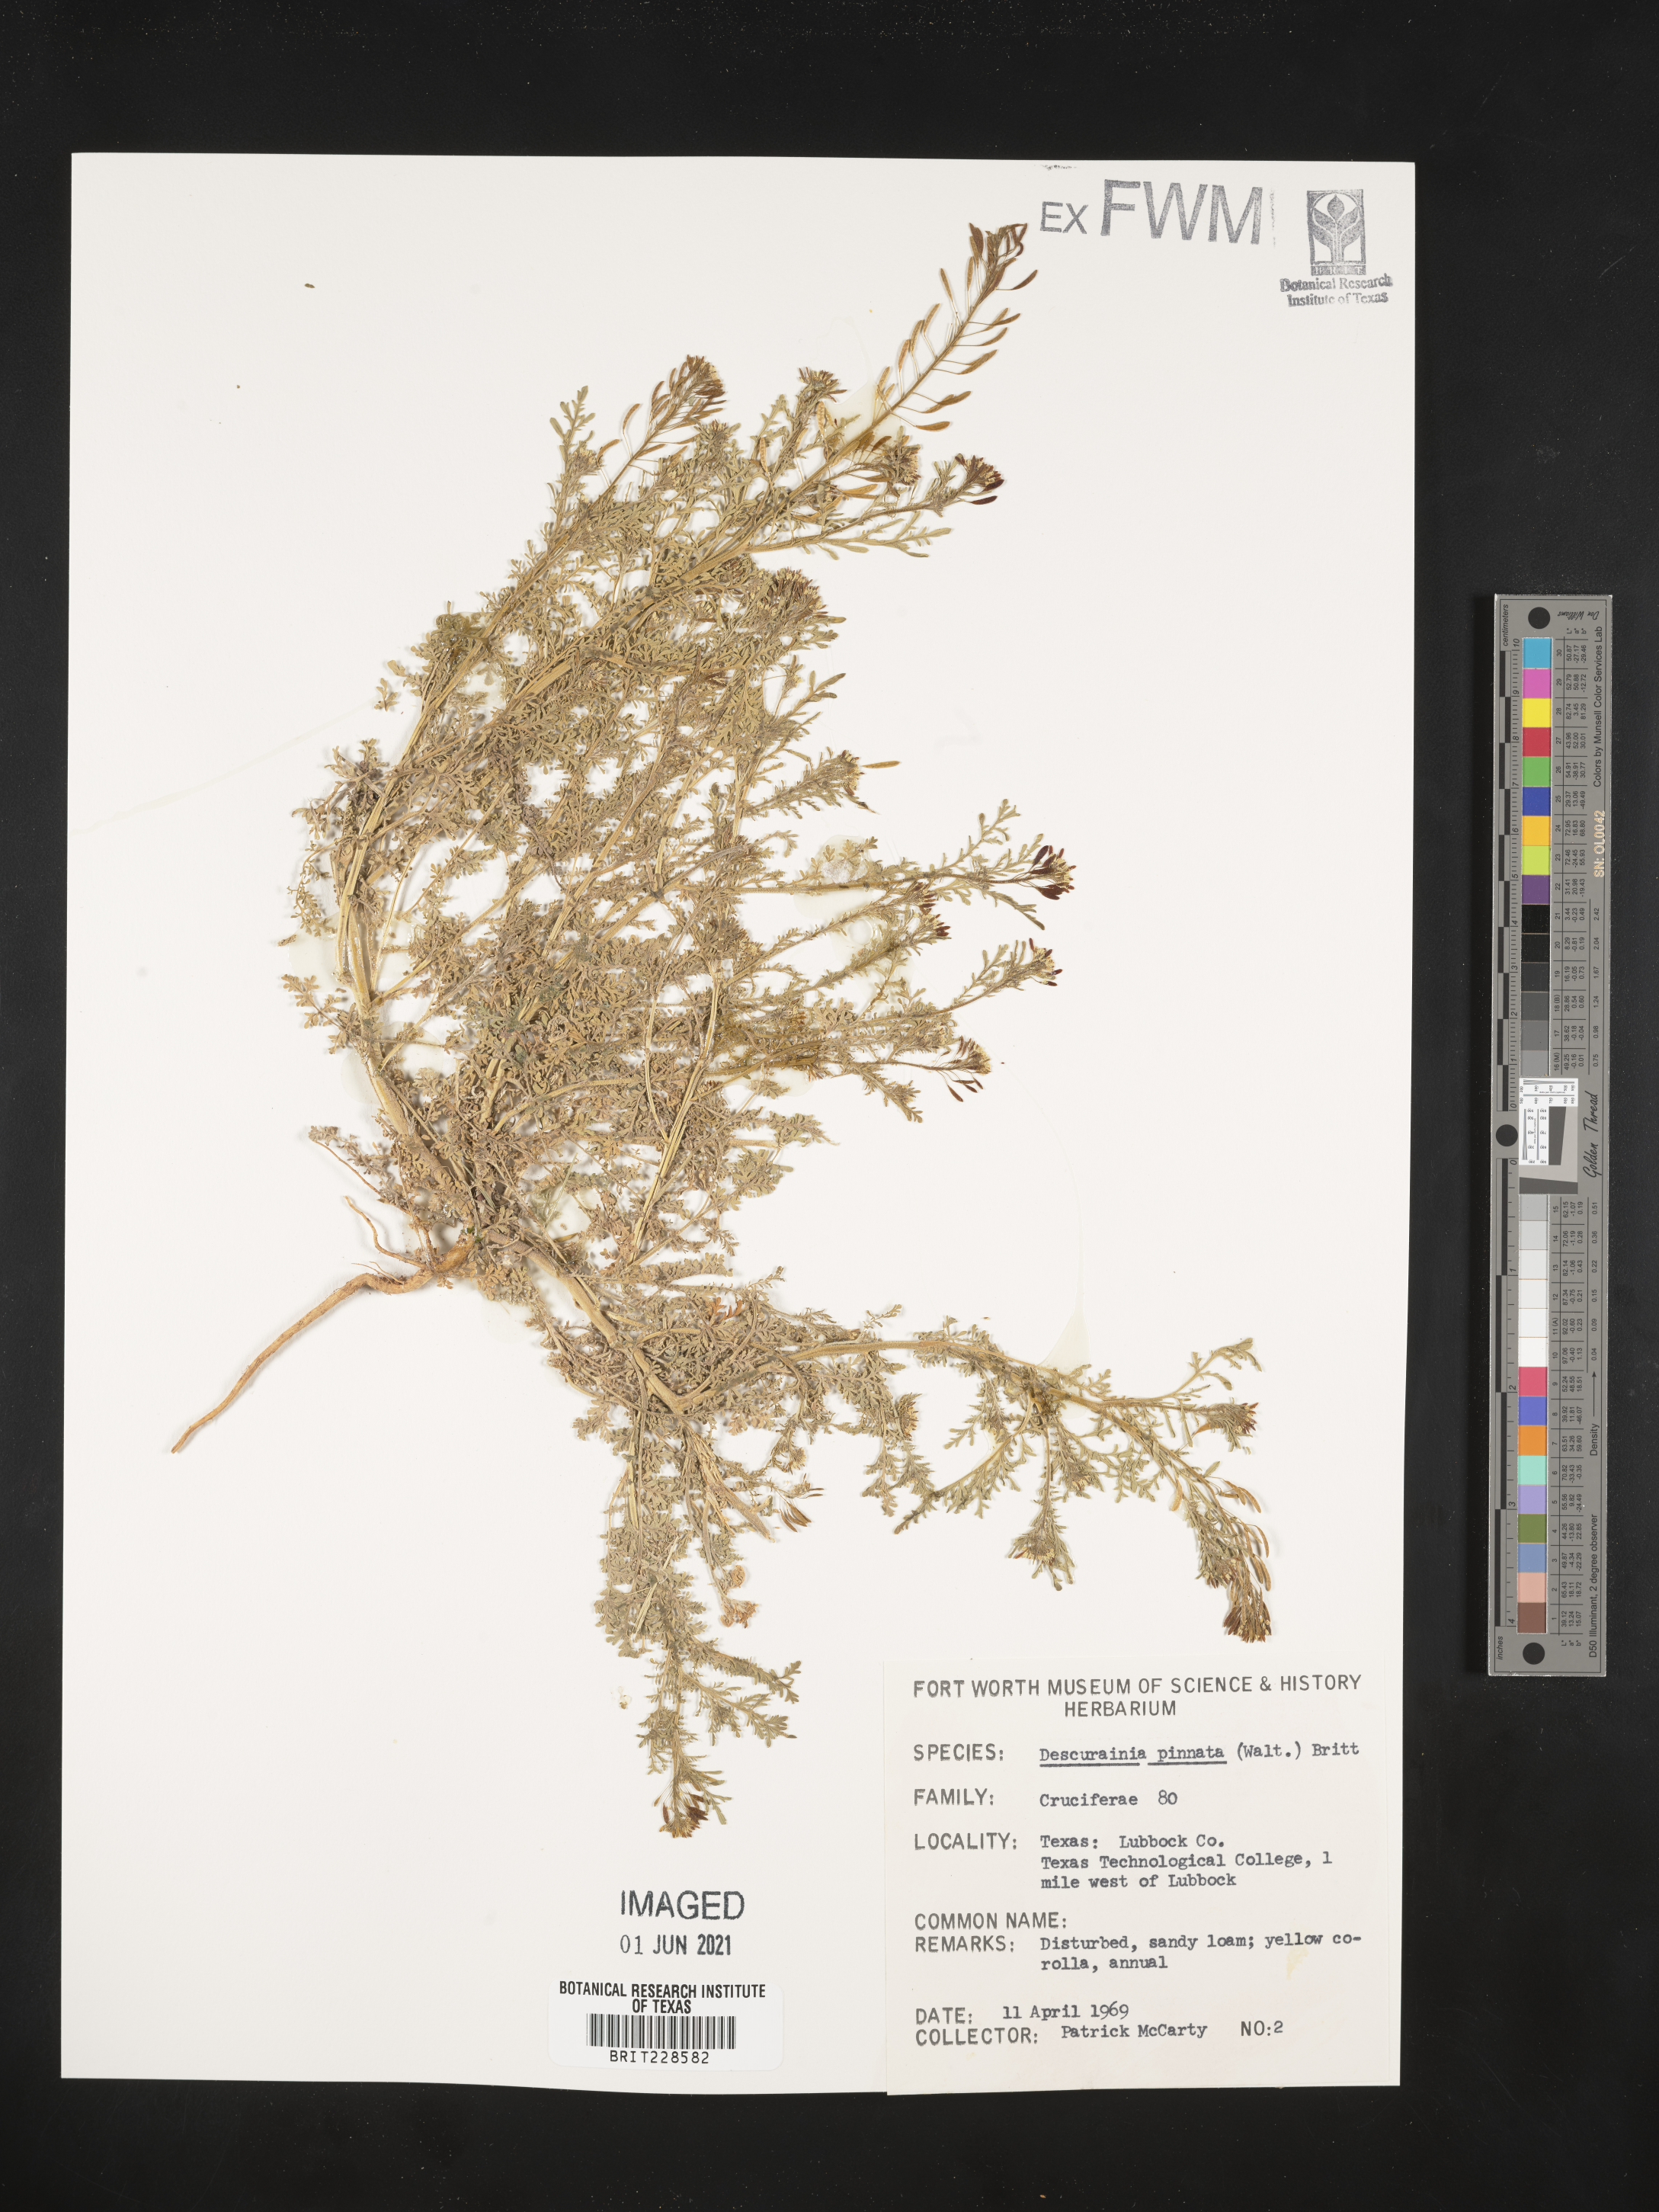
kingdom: Plantae
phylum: Tracheophyta
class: Magnoliopsida
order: Brassicales
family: Brassicaceae
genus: Descurainia
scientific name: Descurainia pinnata
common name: Western tansy mustard
